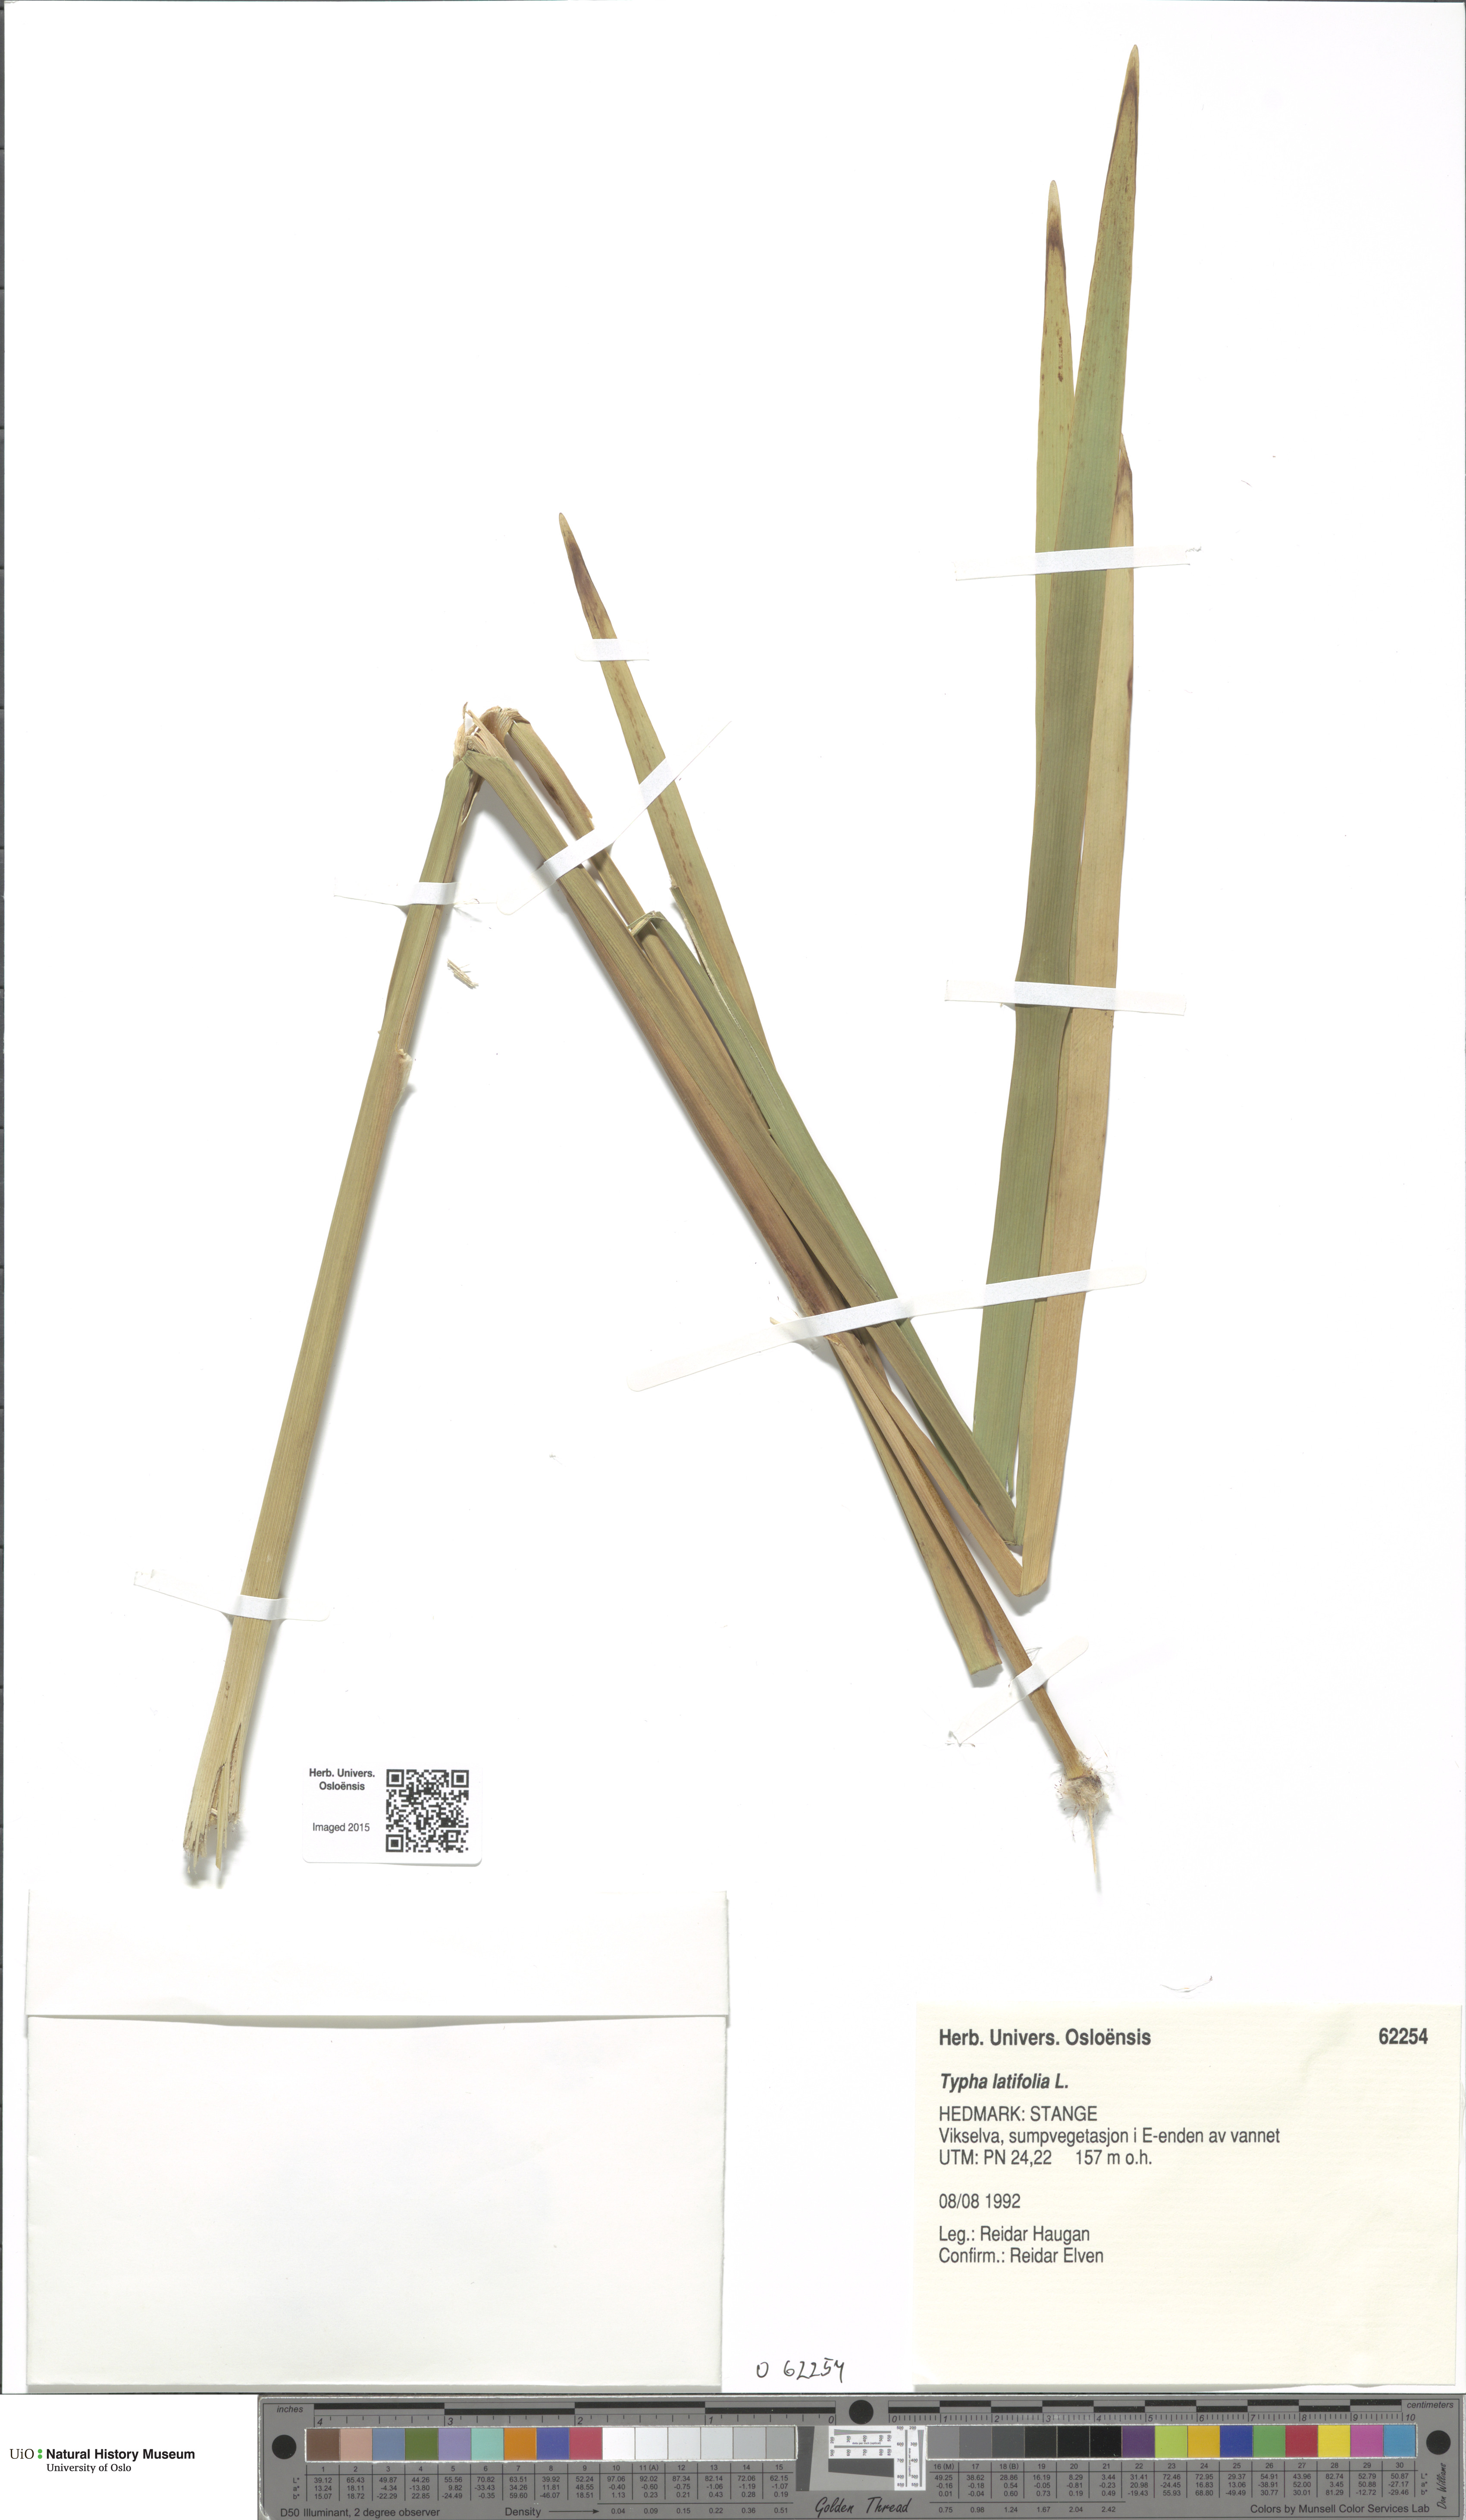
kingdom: Plantae
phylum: Tracheophyta
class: Liliopsida
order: Poales
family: Typhaceae
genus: Typha
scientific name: Typha latifolia
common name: Broadleaf cattail
